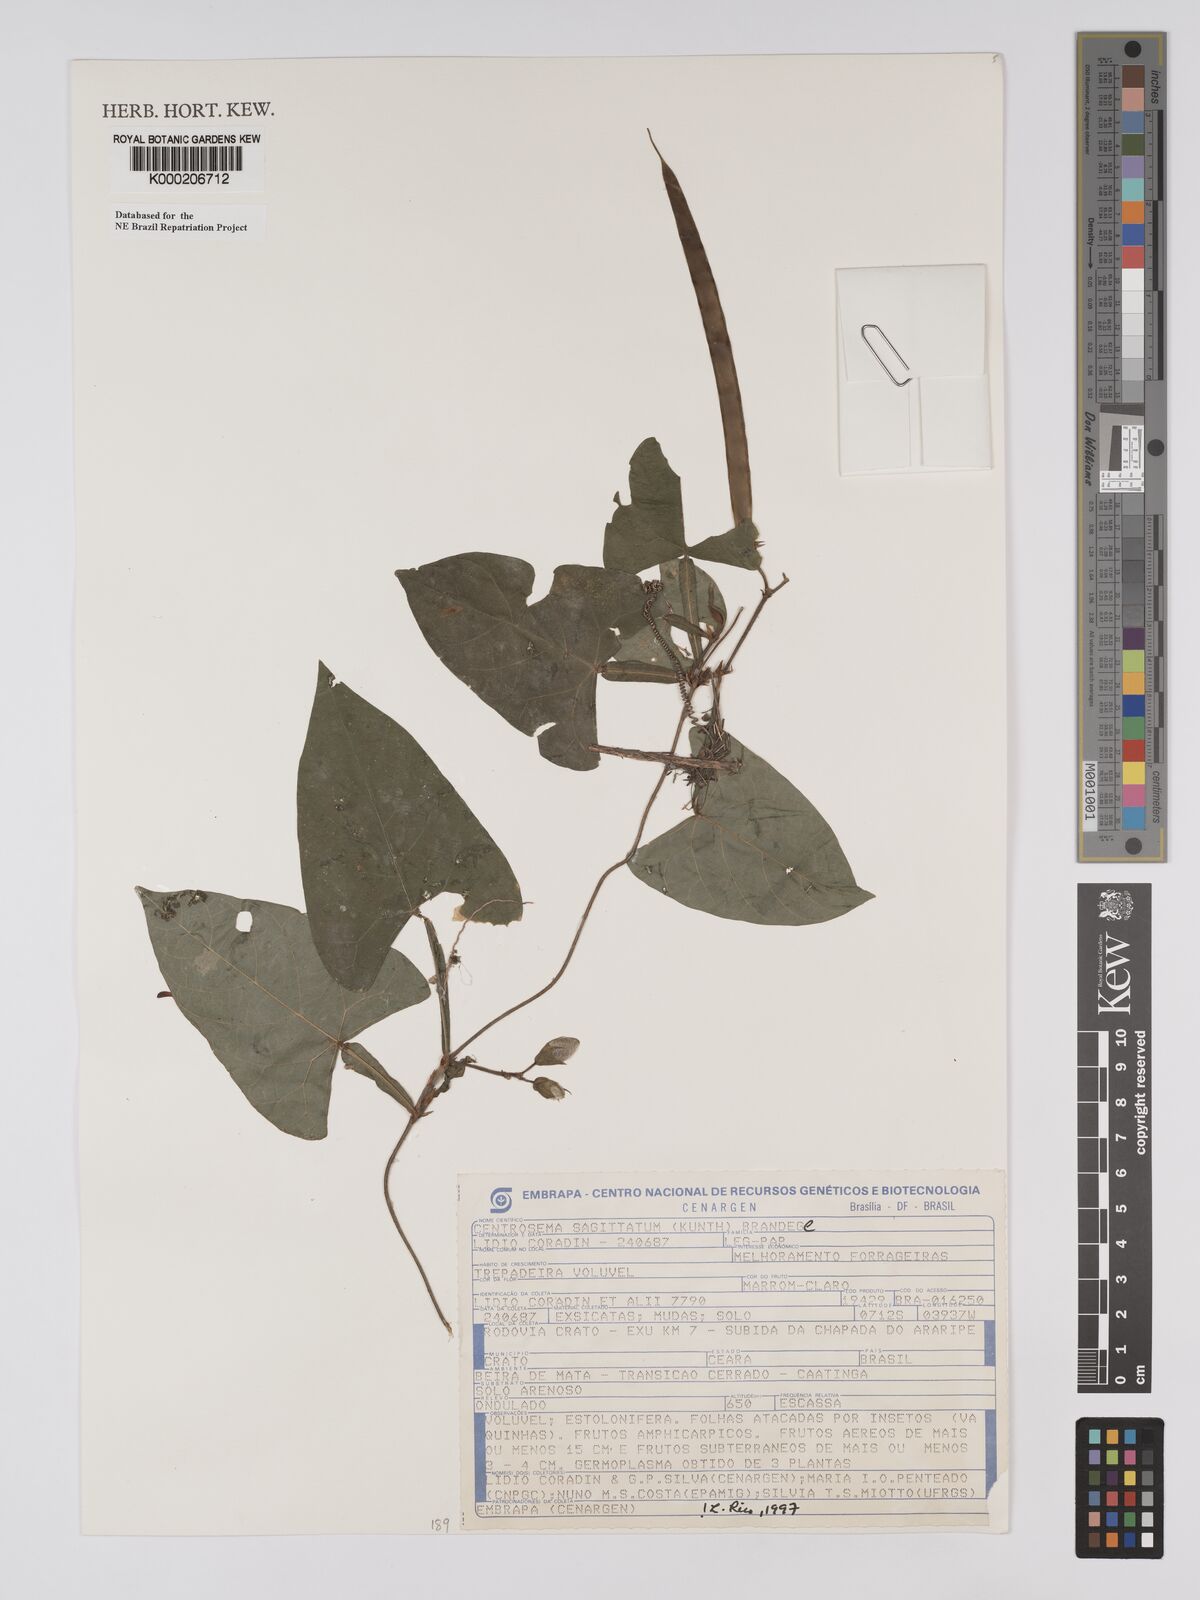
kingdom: Plantae
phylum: Tracheophyta
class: Magnoliopsida
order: Fabales
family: Fabaceae
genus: Centrosema
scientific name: Centrosema sagittatum
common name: Arrowleaf butterfly pea
